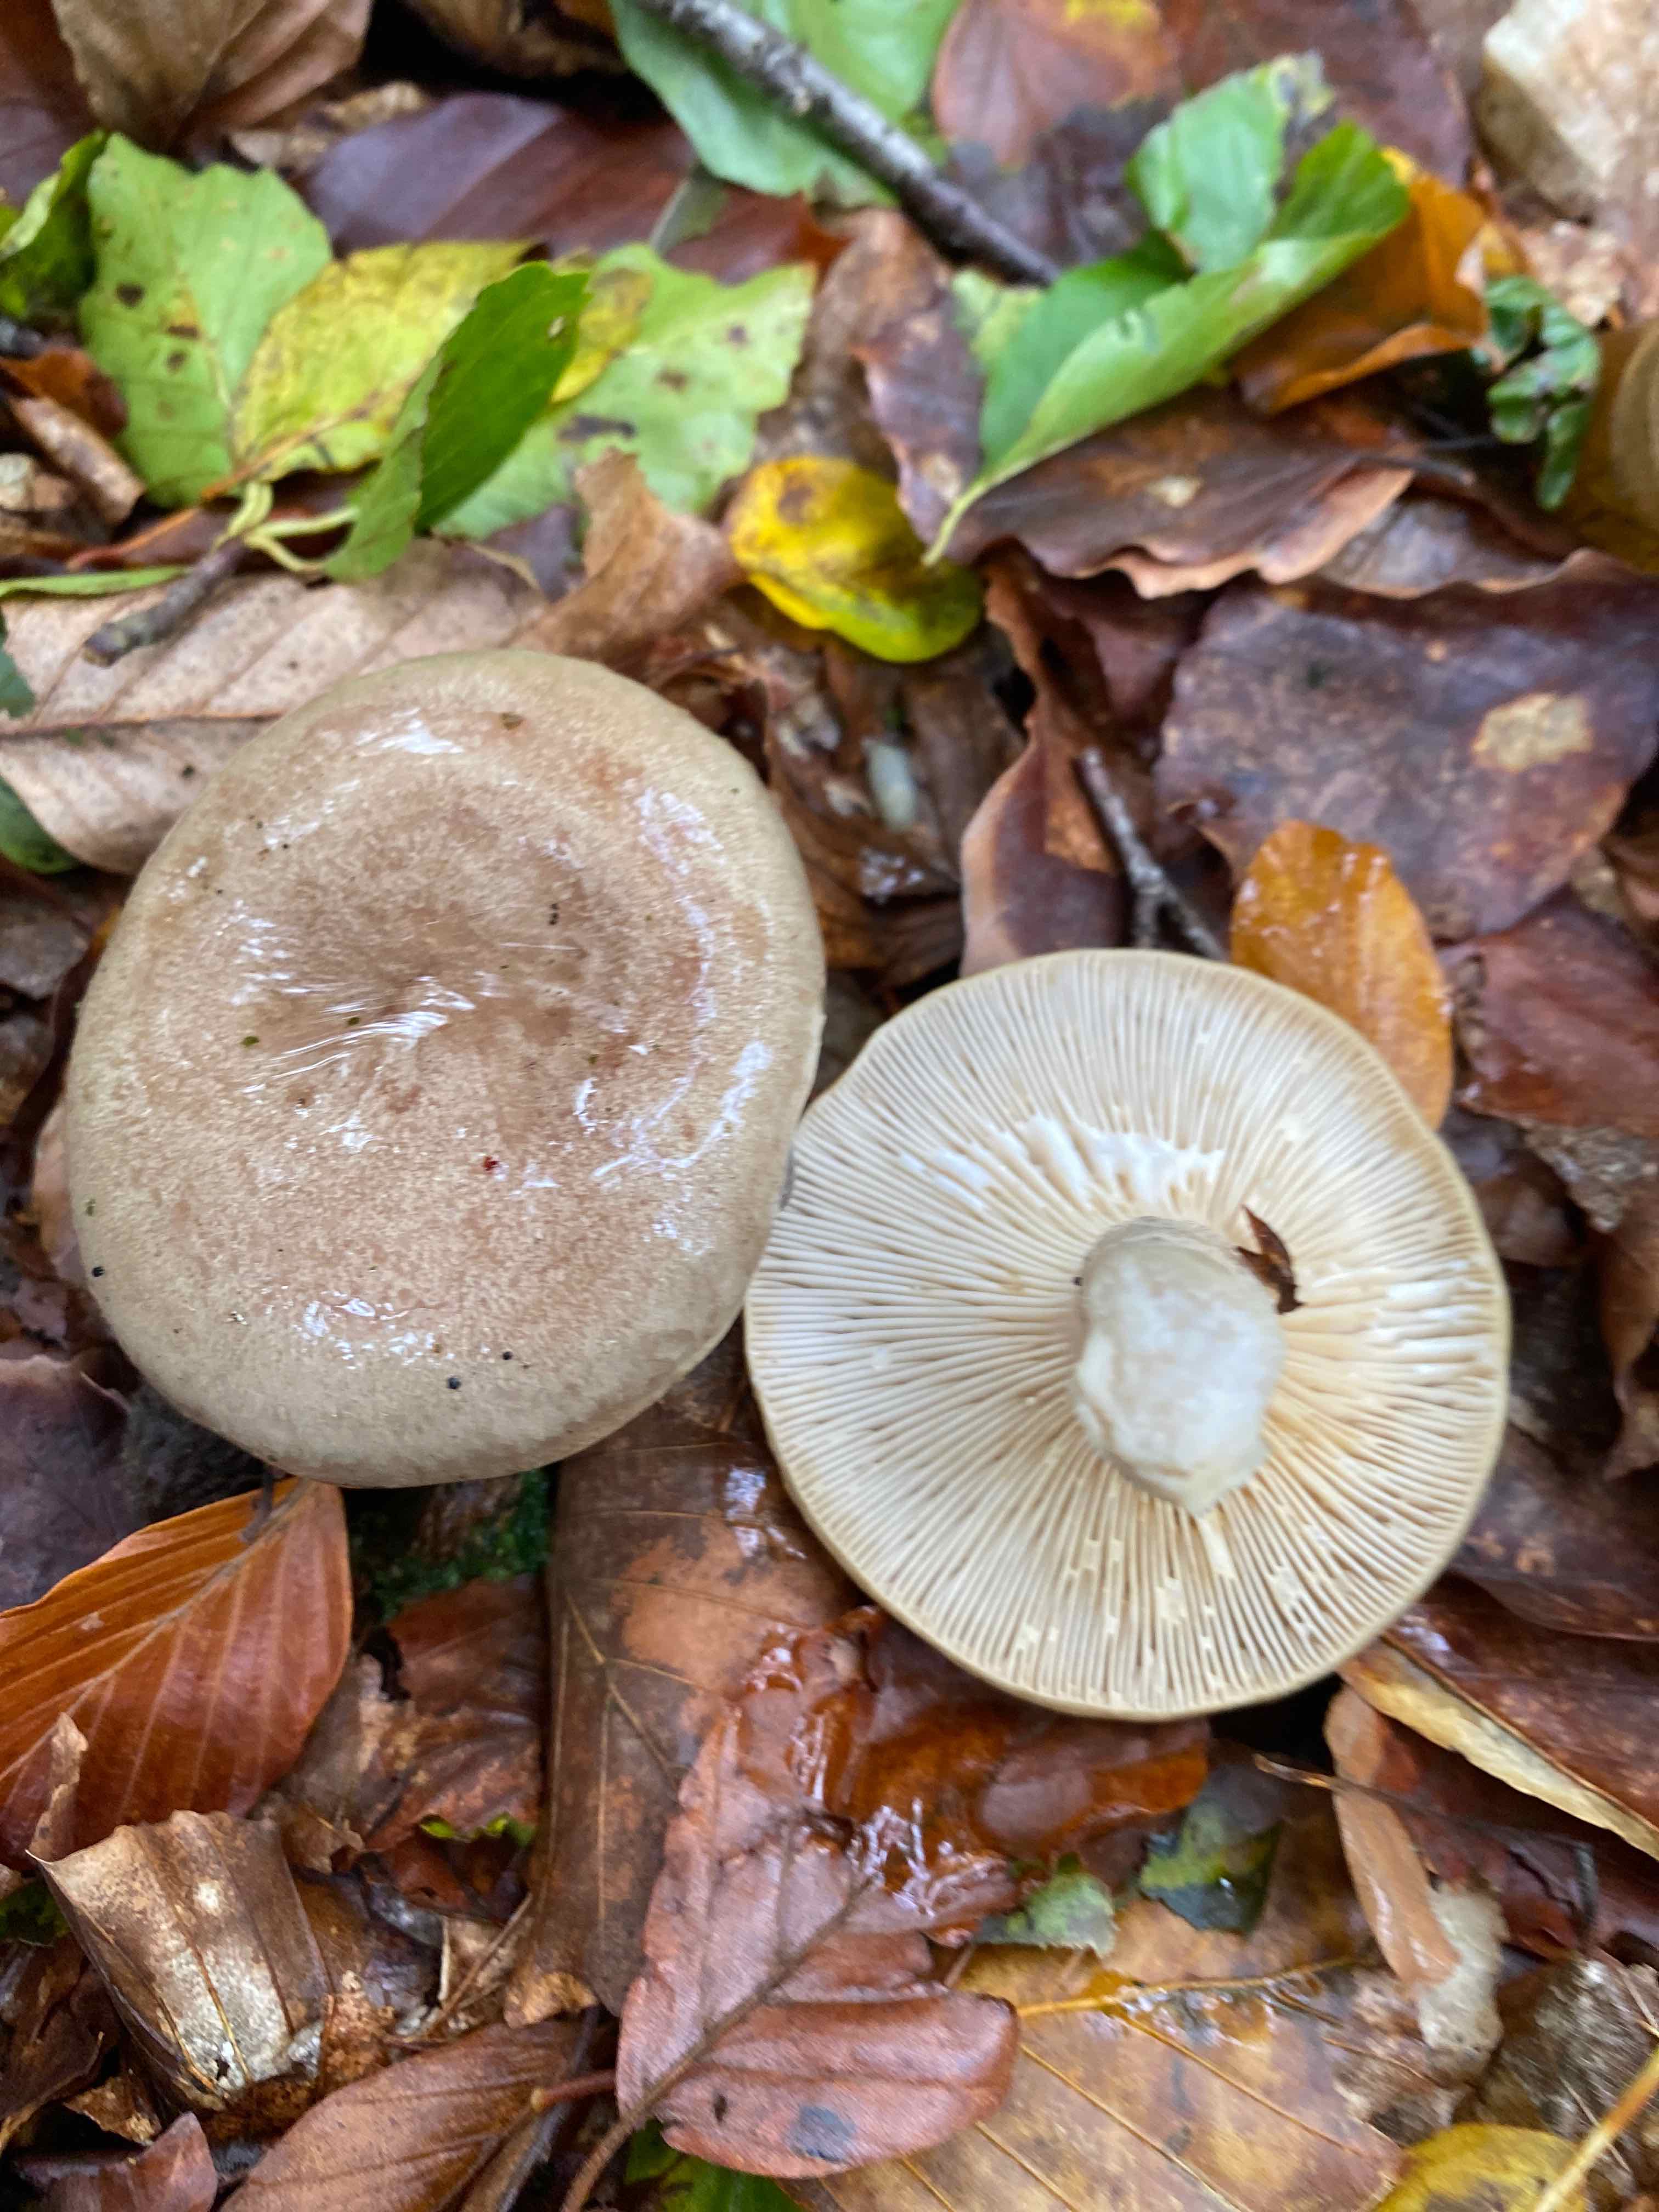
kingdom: Fungi
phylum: Basidiomycota
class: Agaricomycetes
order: Russulales
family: Russulaceae
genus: Lactarius
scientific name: Lactarius blennius
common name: dråbeplettet mælkehat
